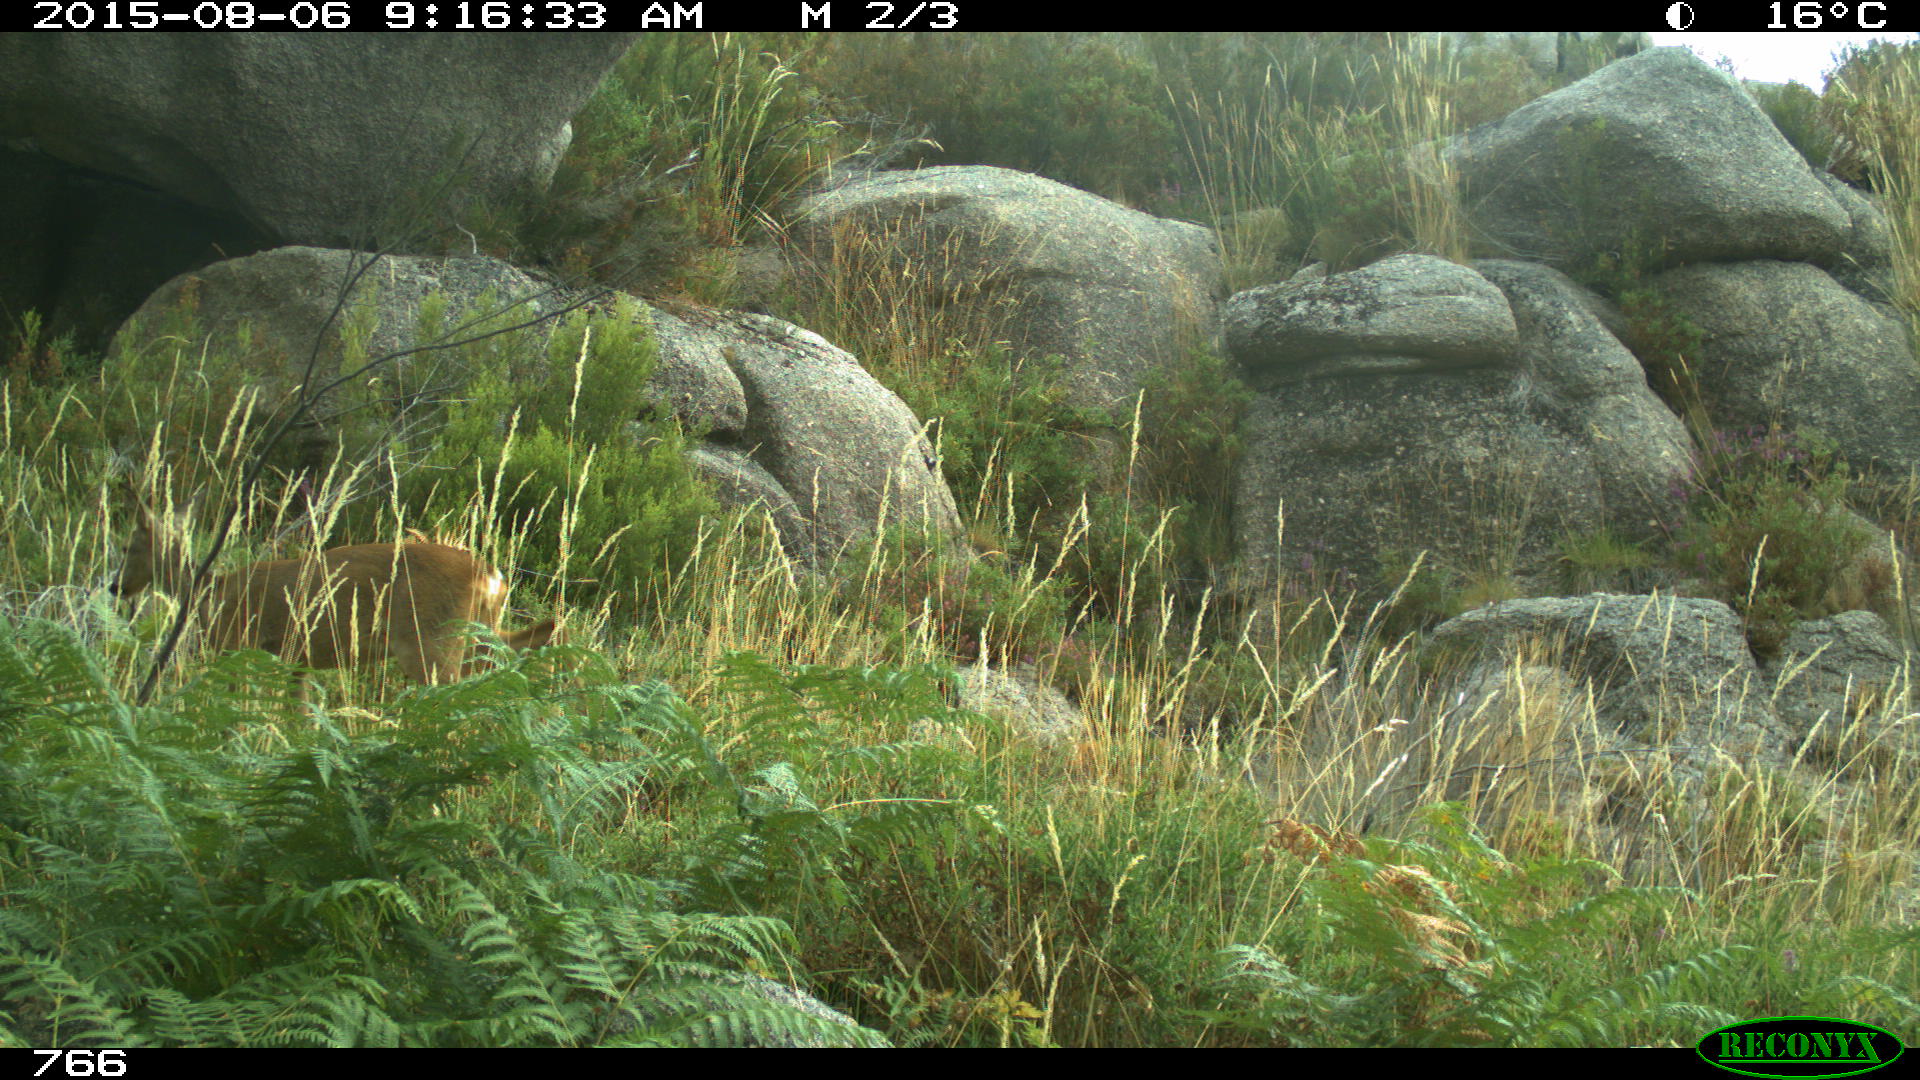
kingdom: Animalia
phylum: Chordata
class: Mammalia
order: Artiodactyla
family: Cervidae
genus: Capreolus
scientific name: Capreolus capreolus
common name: Western roe deer
